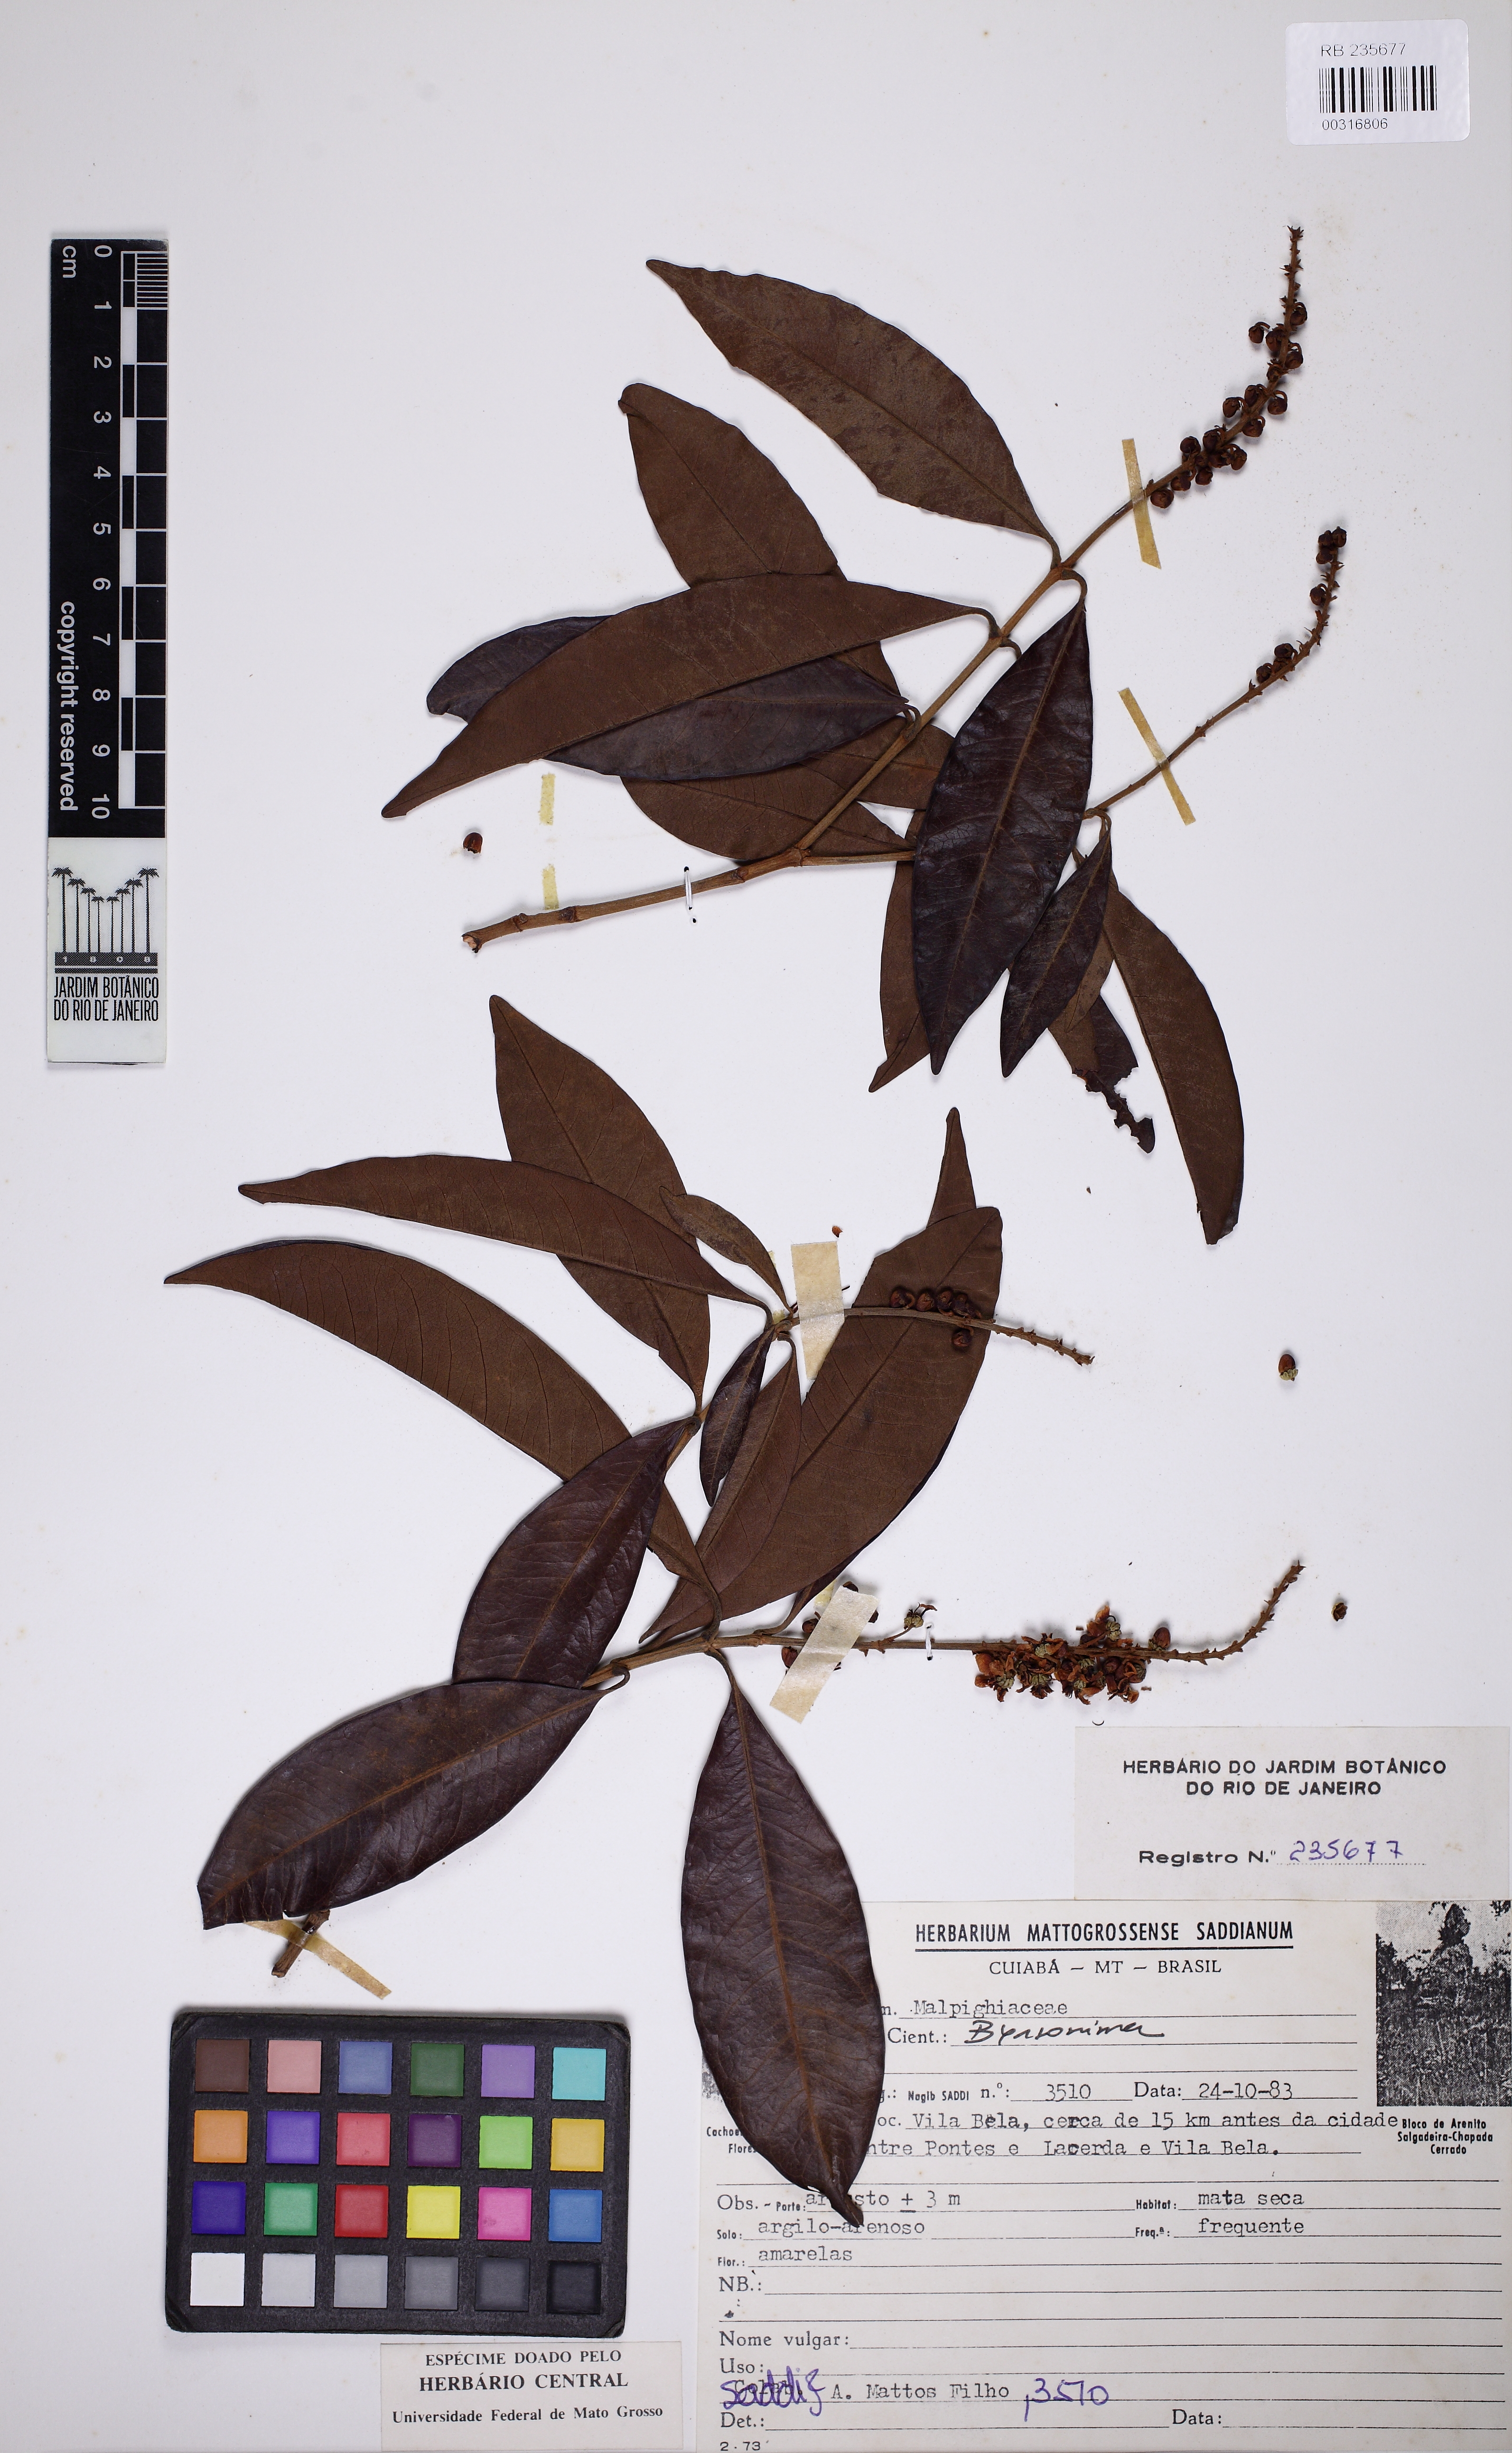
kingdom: Plantae
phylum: Tracheophyta
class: Magnoliopsida
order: Malpighiales
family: Malpighiaceae
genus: Byrsonima
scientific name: Byrsonima spicata
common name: Murixi-bark-tree
